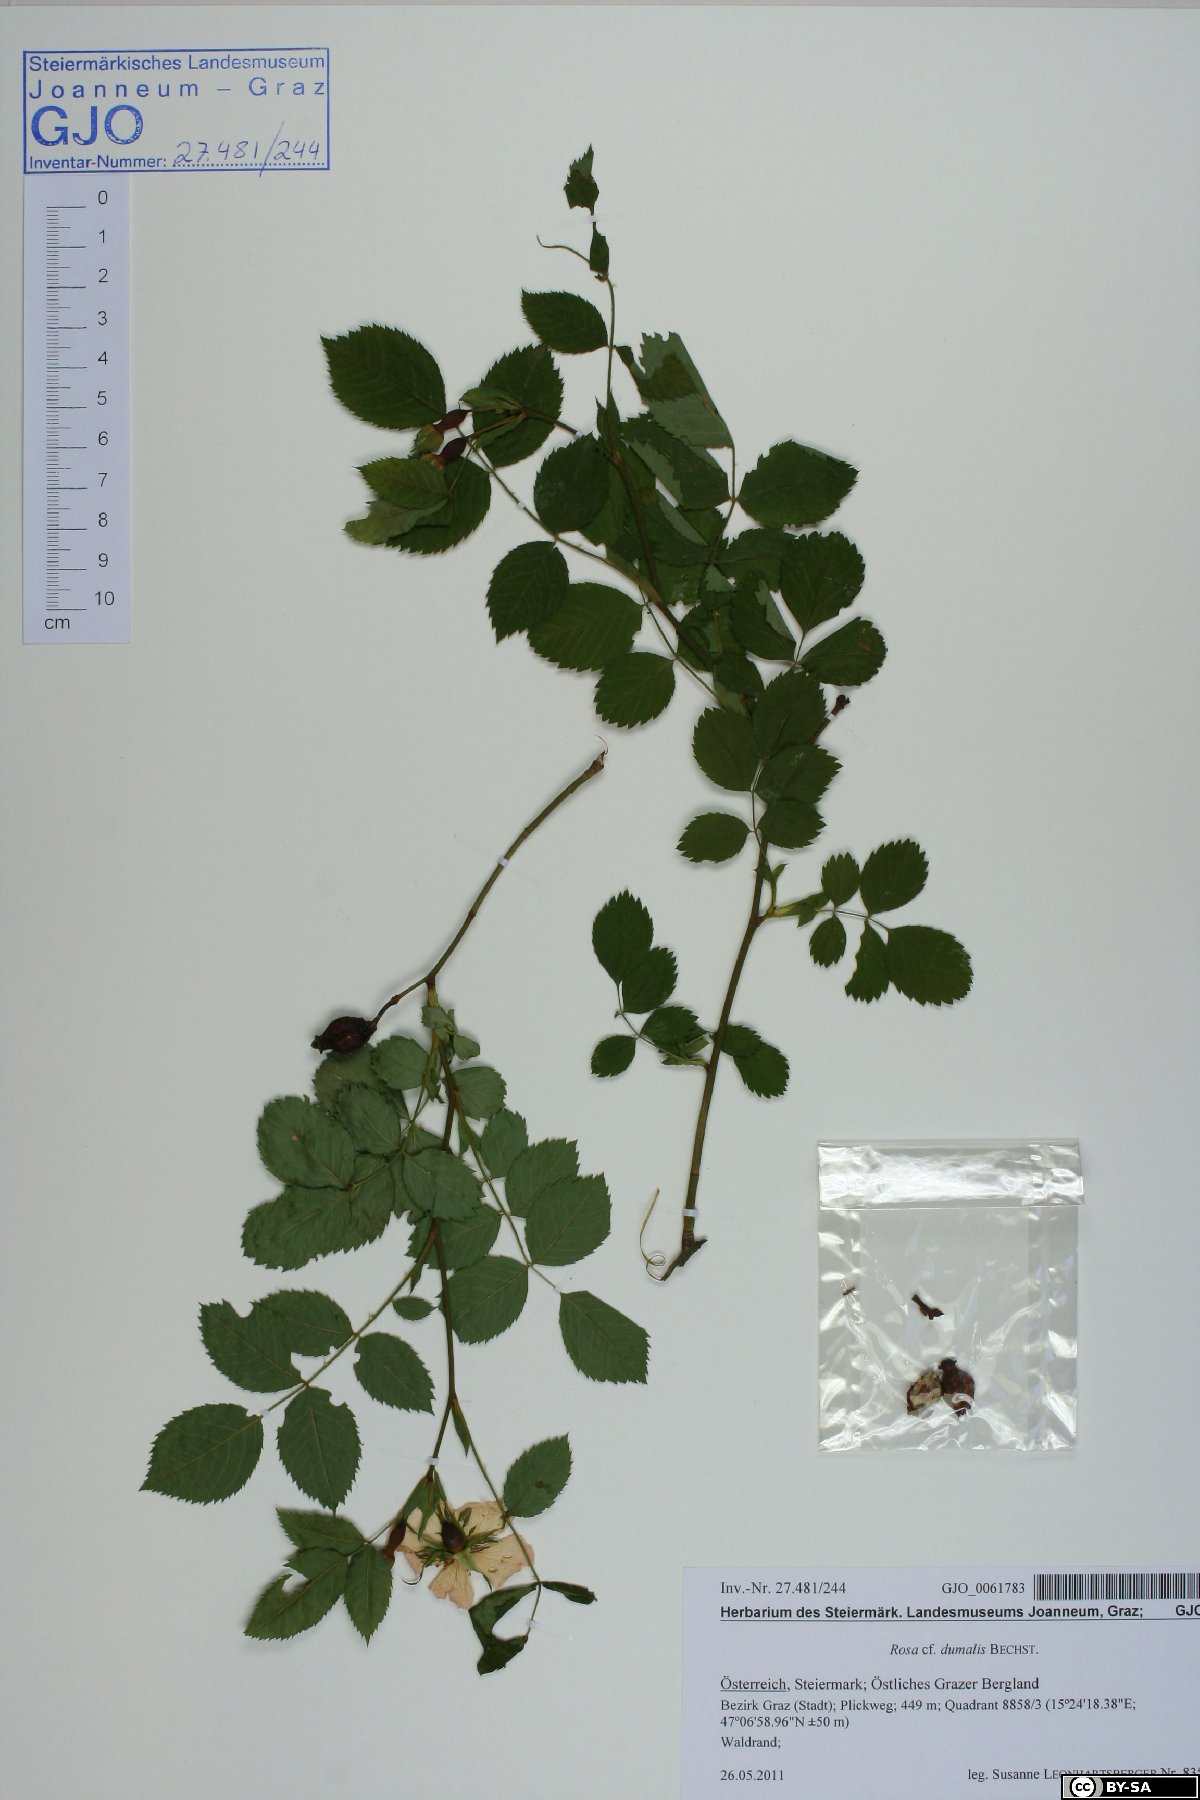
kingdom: Plantae
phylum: Tracheophyta
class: Magnoliopsida
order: Rosales
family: Rosaceae
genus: Rosa
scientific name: Rosa dumalis
